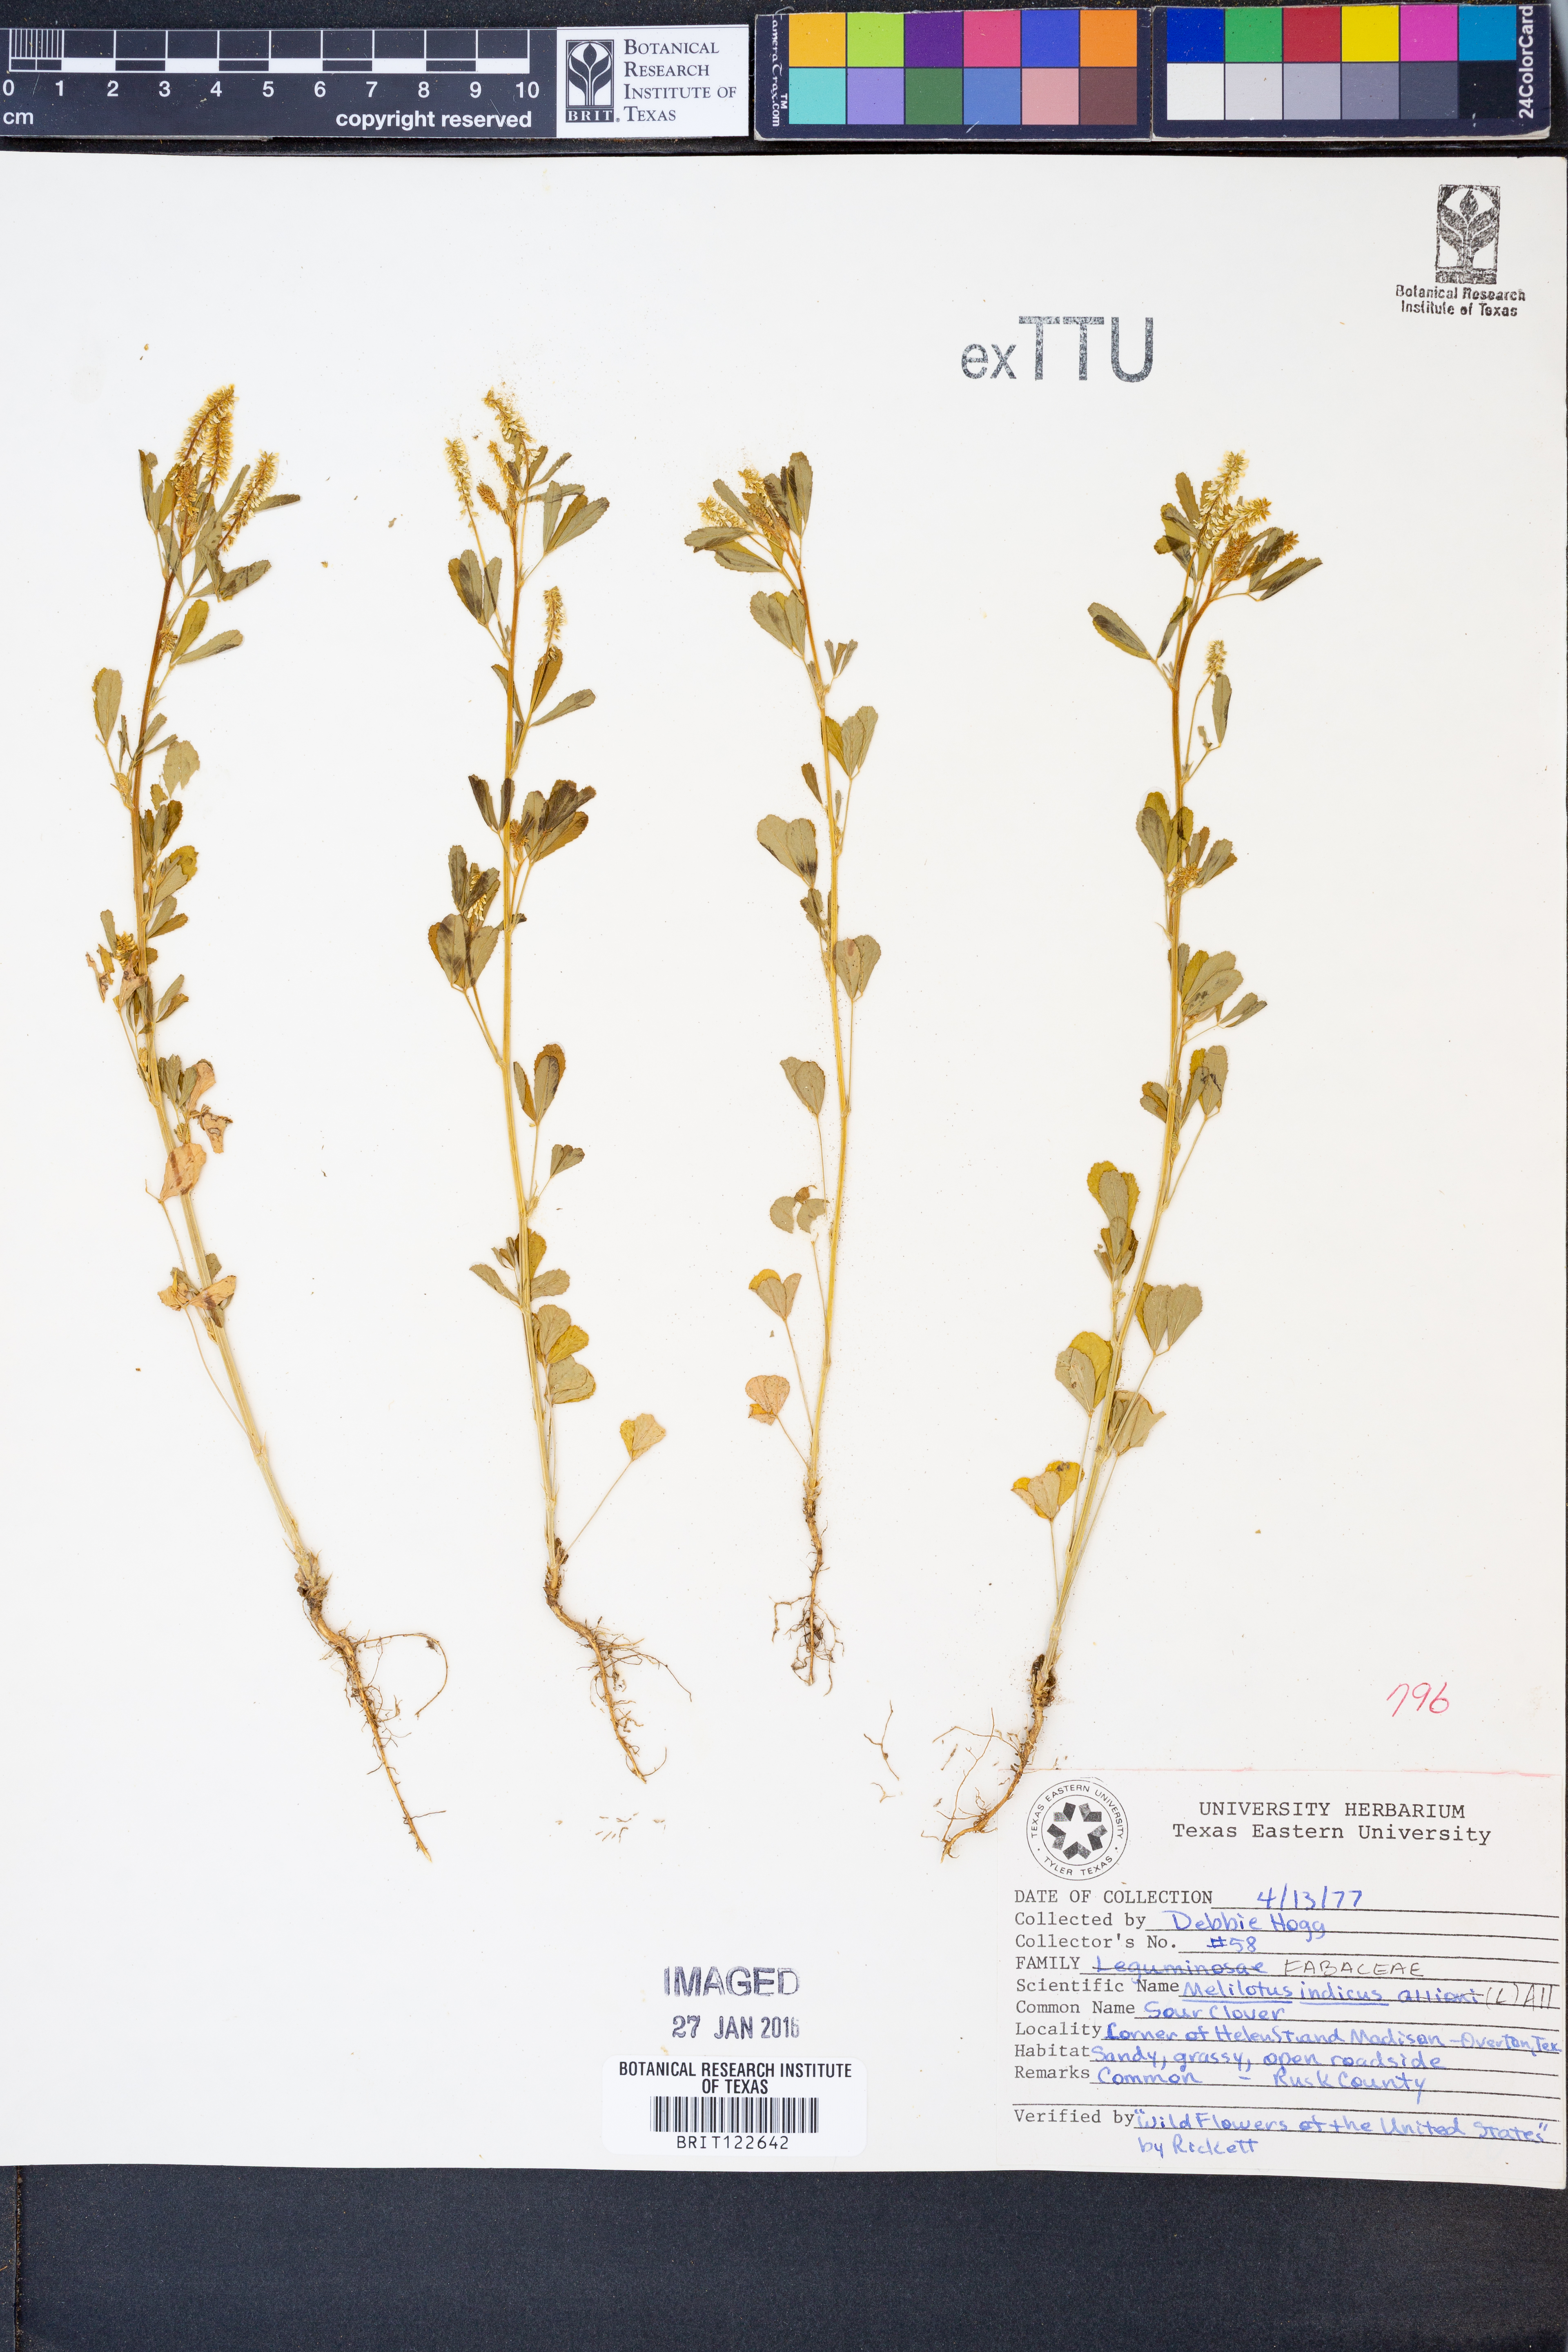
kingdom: Plantae
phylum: Tracheophyta
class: Magnoliopsida
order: Fabales
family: Fabaceae
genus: Melilotus
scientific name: Melilotus indicus
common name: Small melilot
